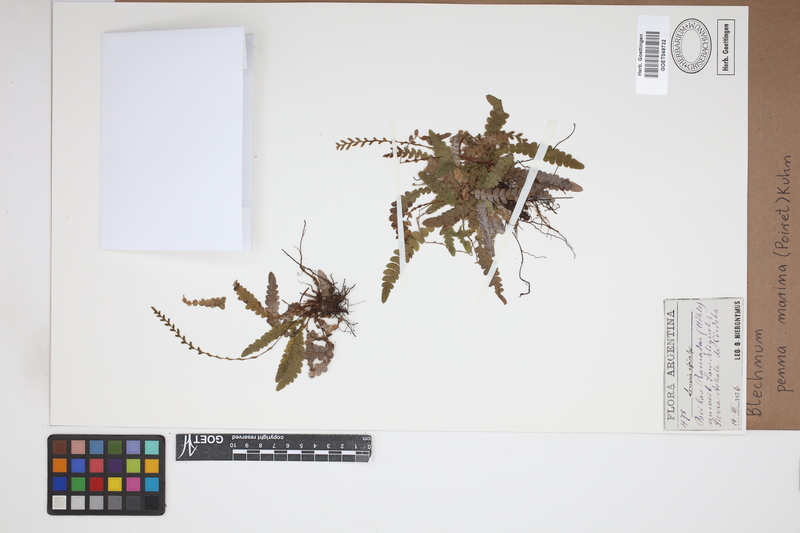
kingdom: Plantae
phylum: Tracheophyta
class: Polypodiopsida
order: Polypodiales
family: Blechnaceae
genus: Austroblechnum
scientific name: Austroblechnum penna-marina
